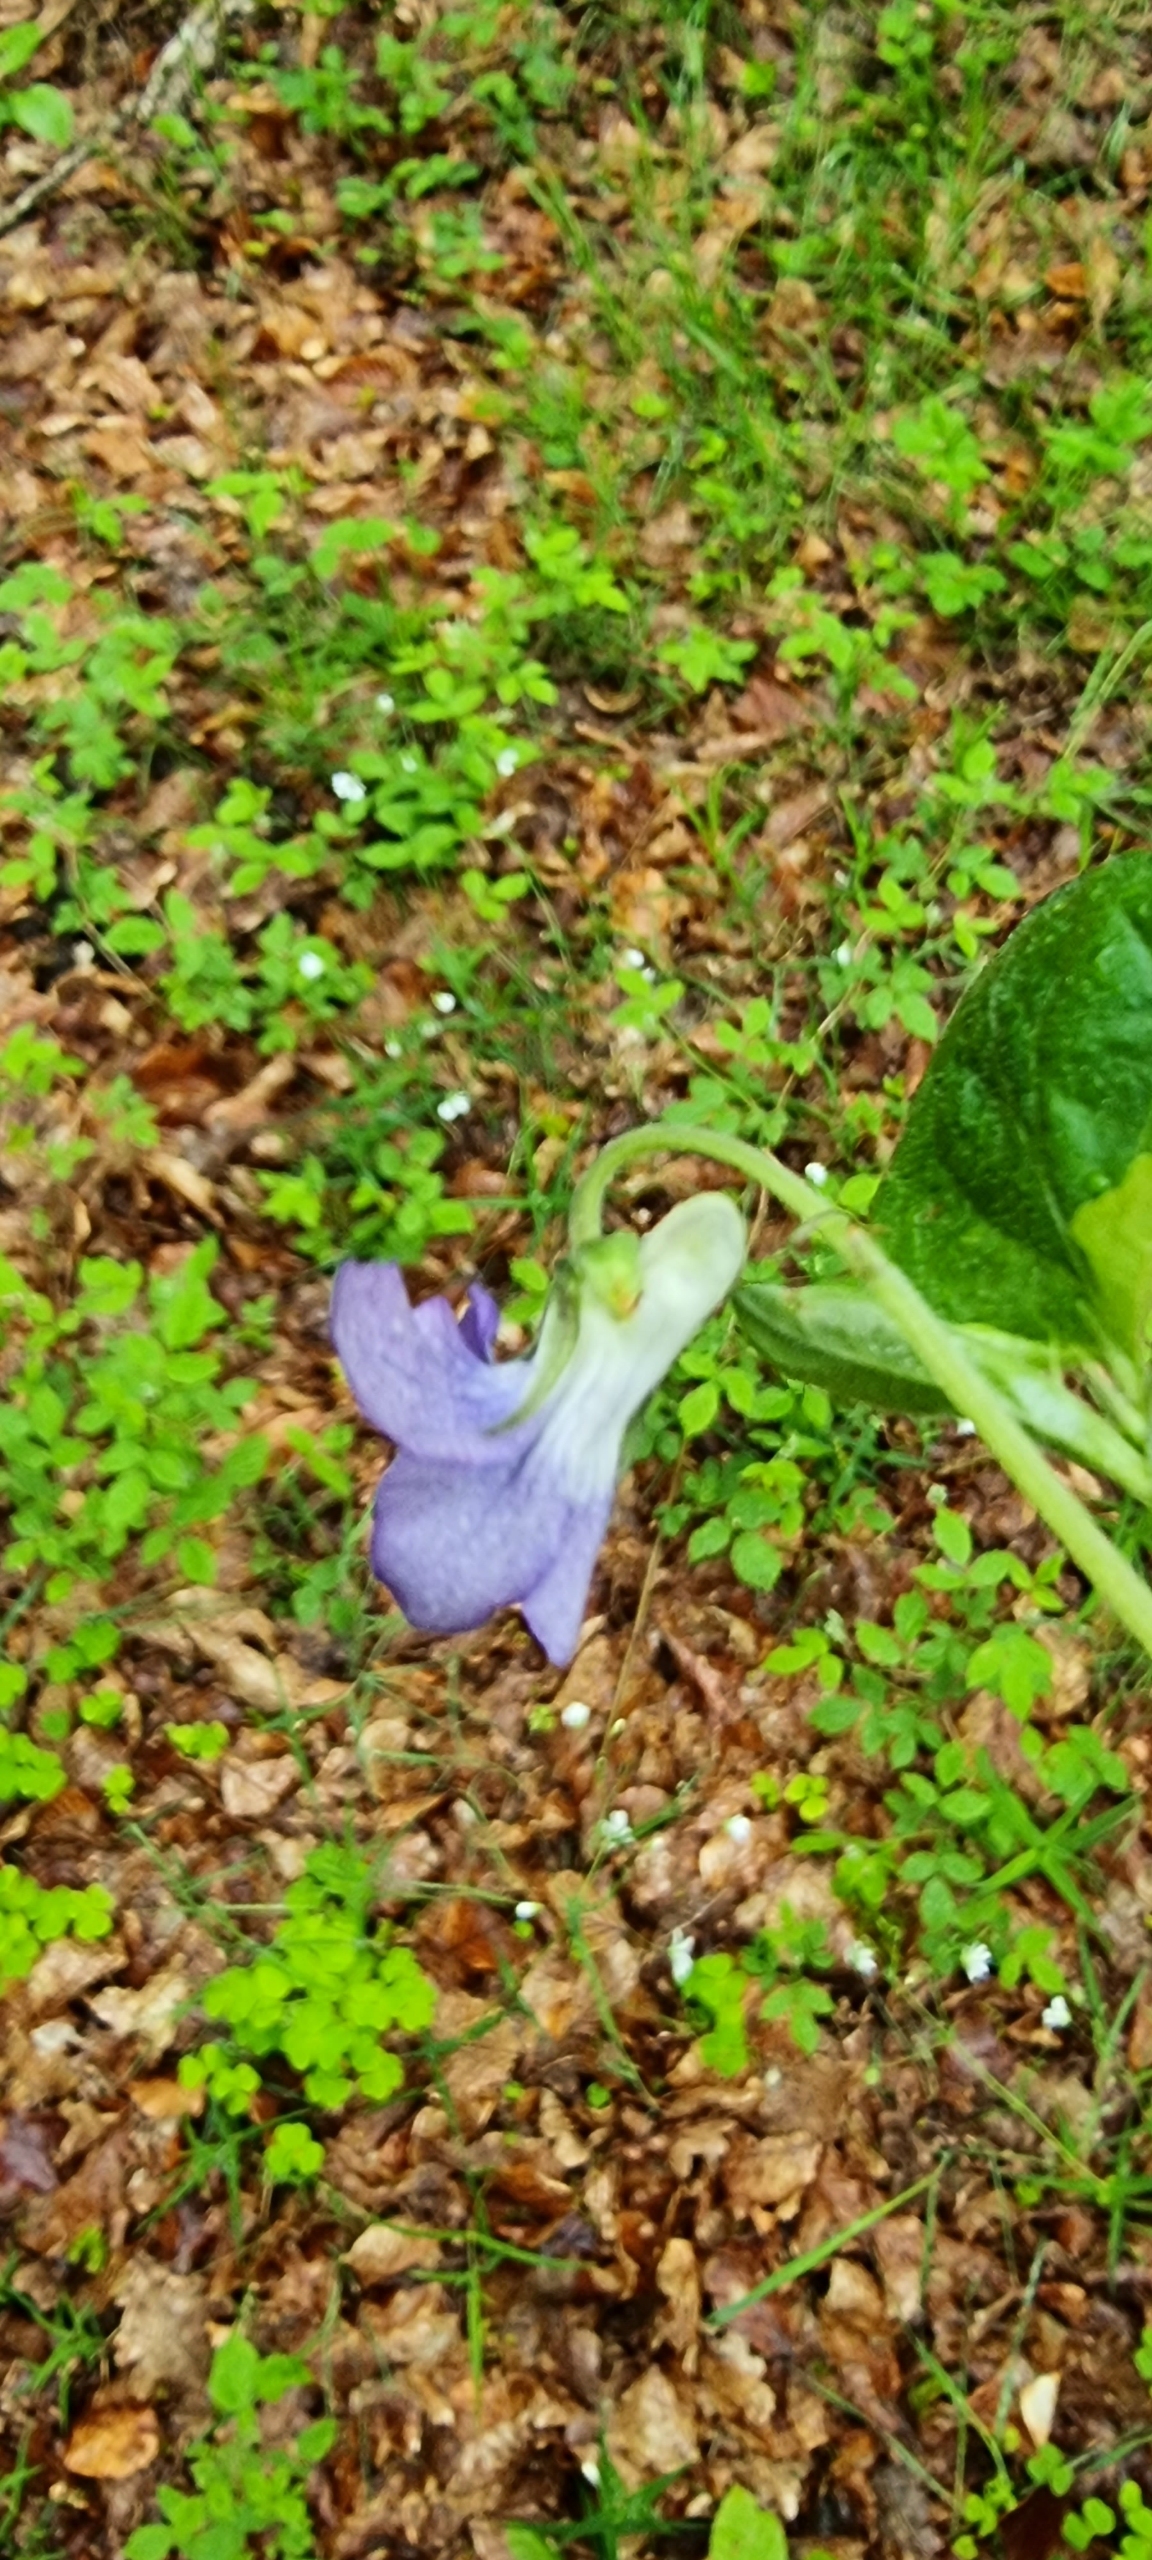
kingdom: Plantae
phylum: Tracheophyta
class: Magnoliopsida
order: Malpighiales
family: Violaceae
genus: Viola
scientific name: Viola riviniana
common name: Krat-viol
